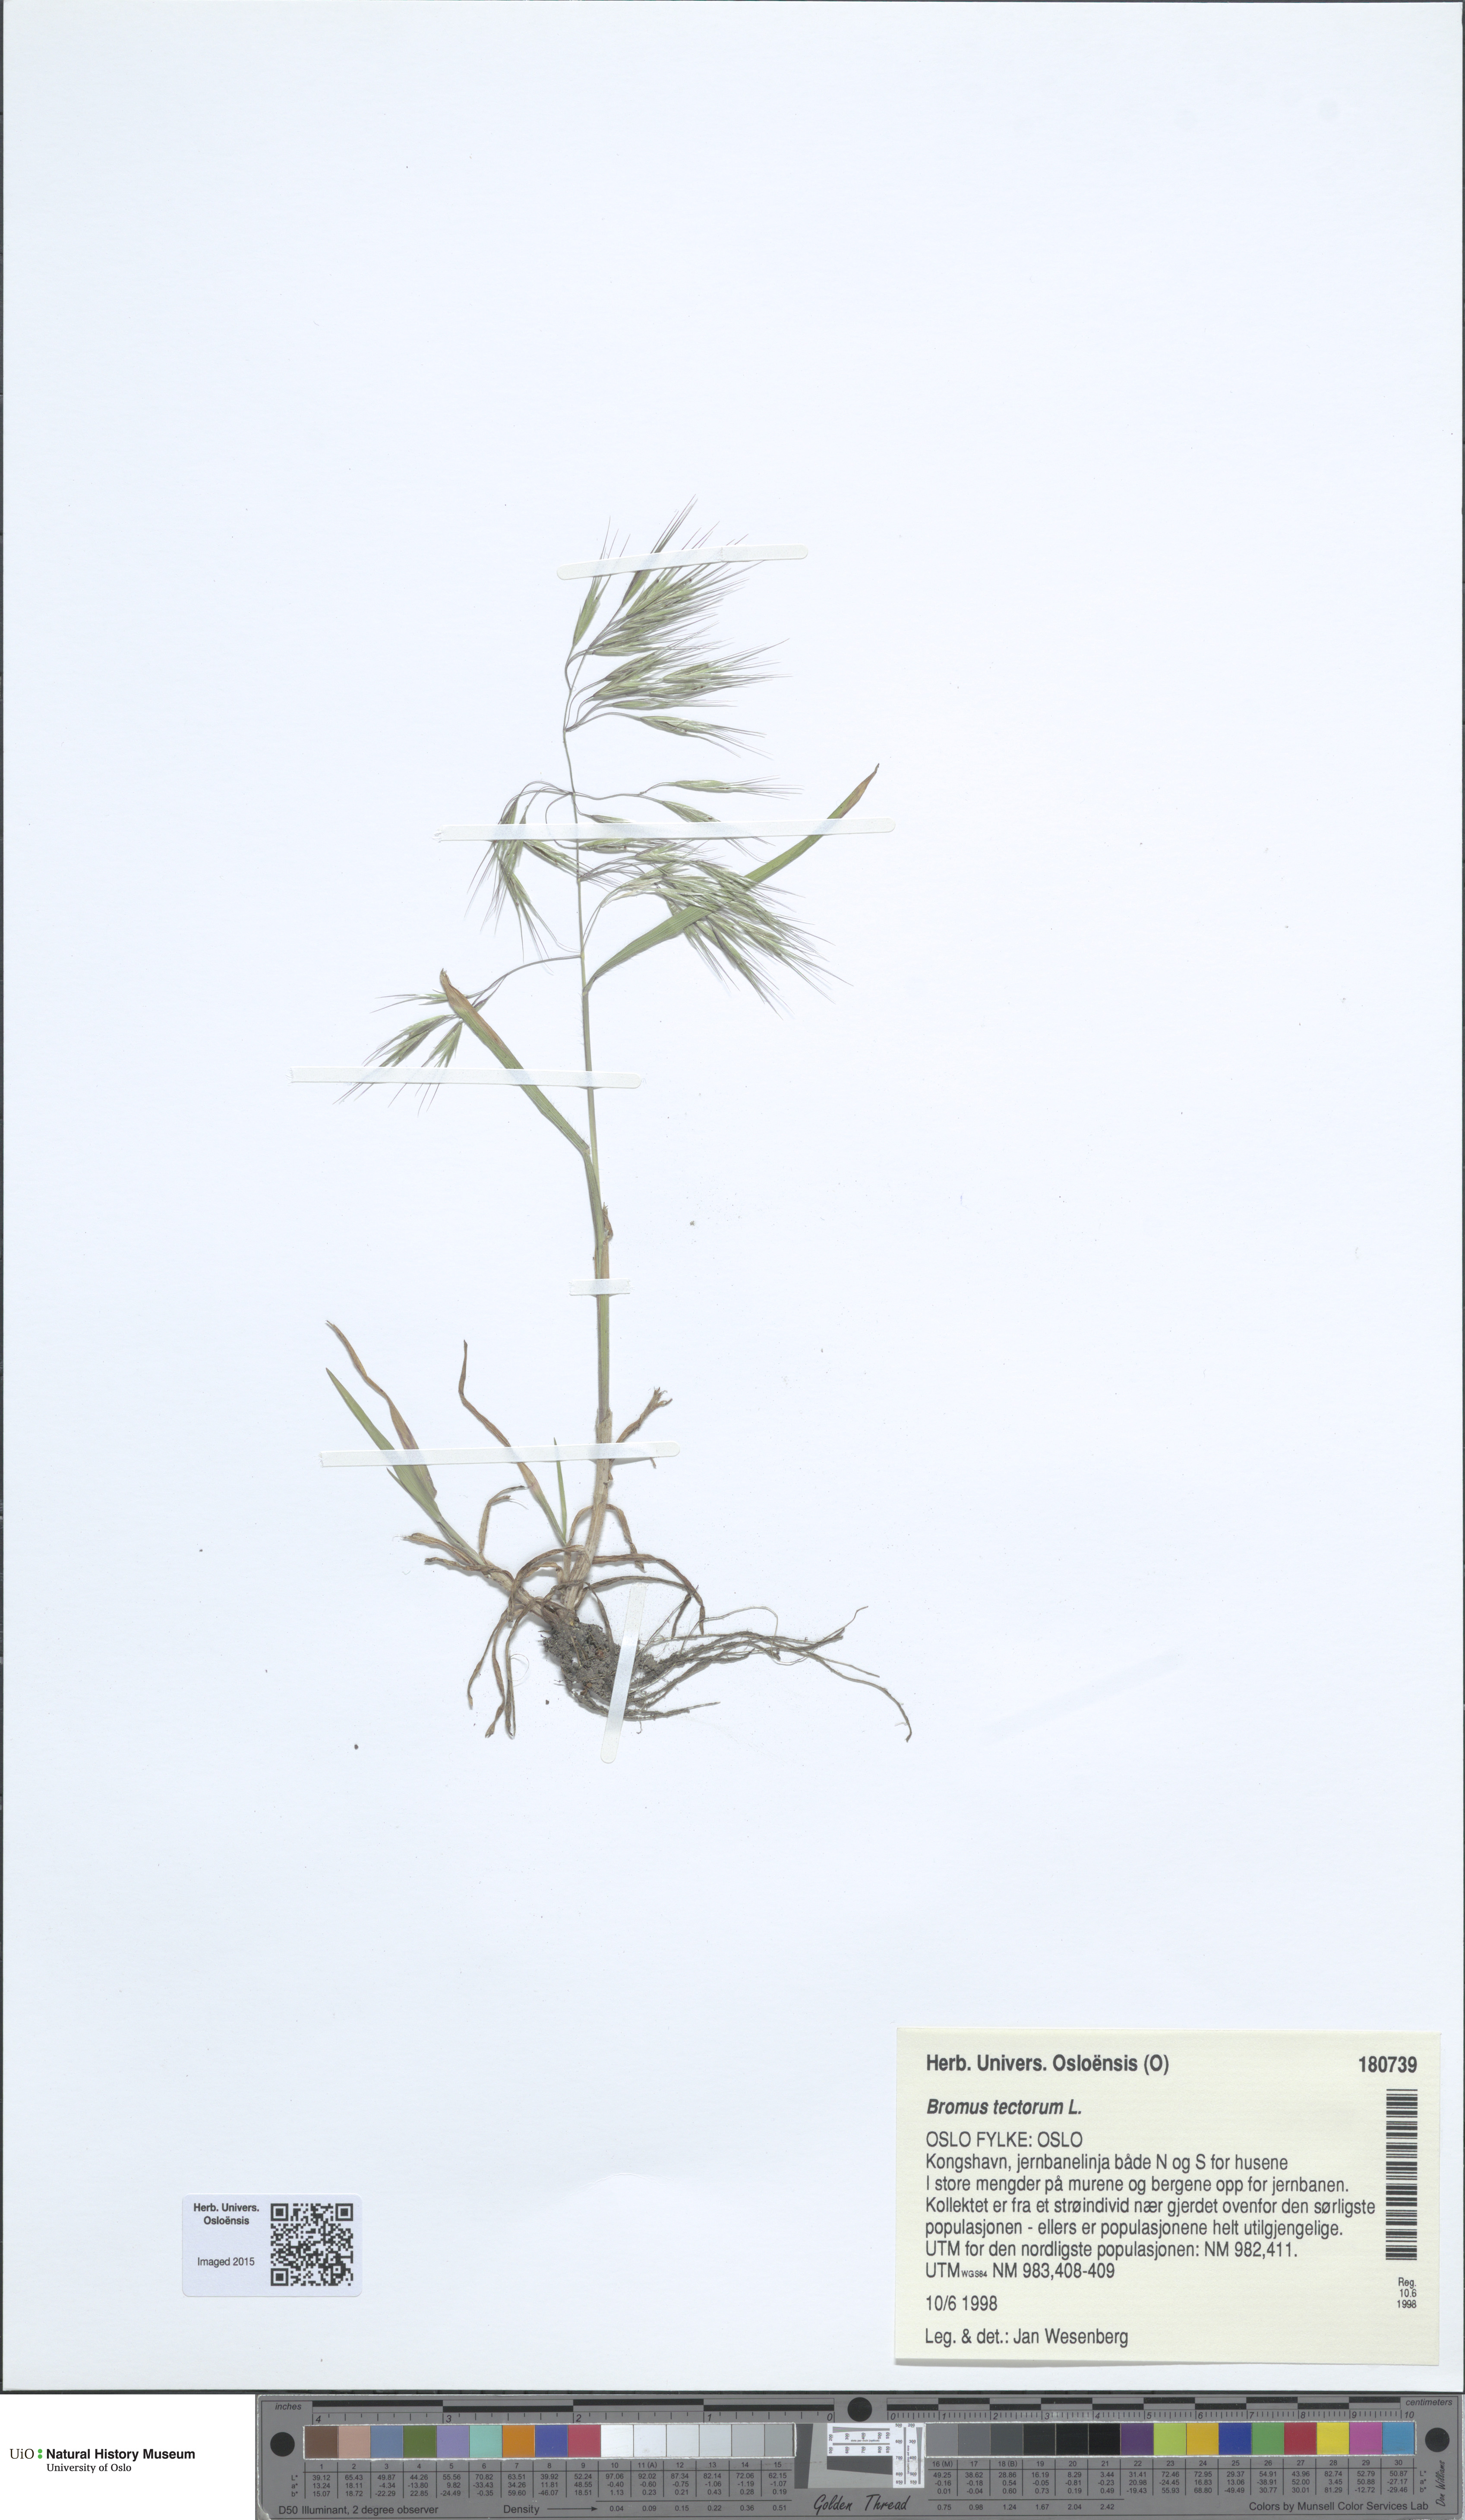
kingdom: Plantae
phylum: Tracheophyta
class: Liliopsida
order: Poales
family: Poaceae
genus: Bromus
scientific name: Bromus tectorum
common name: Cheatgrass
